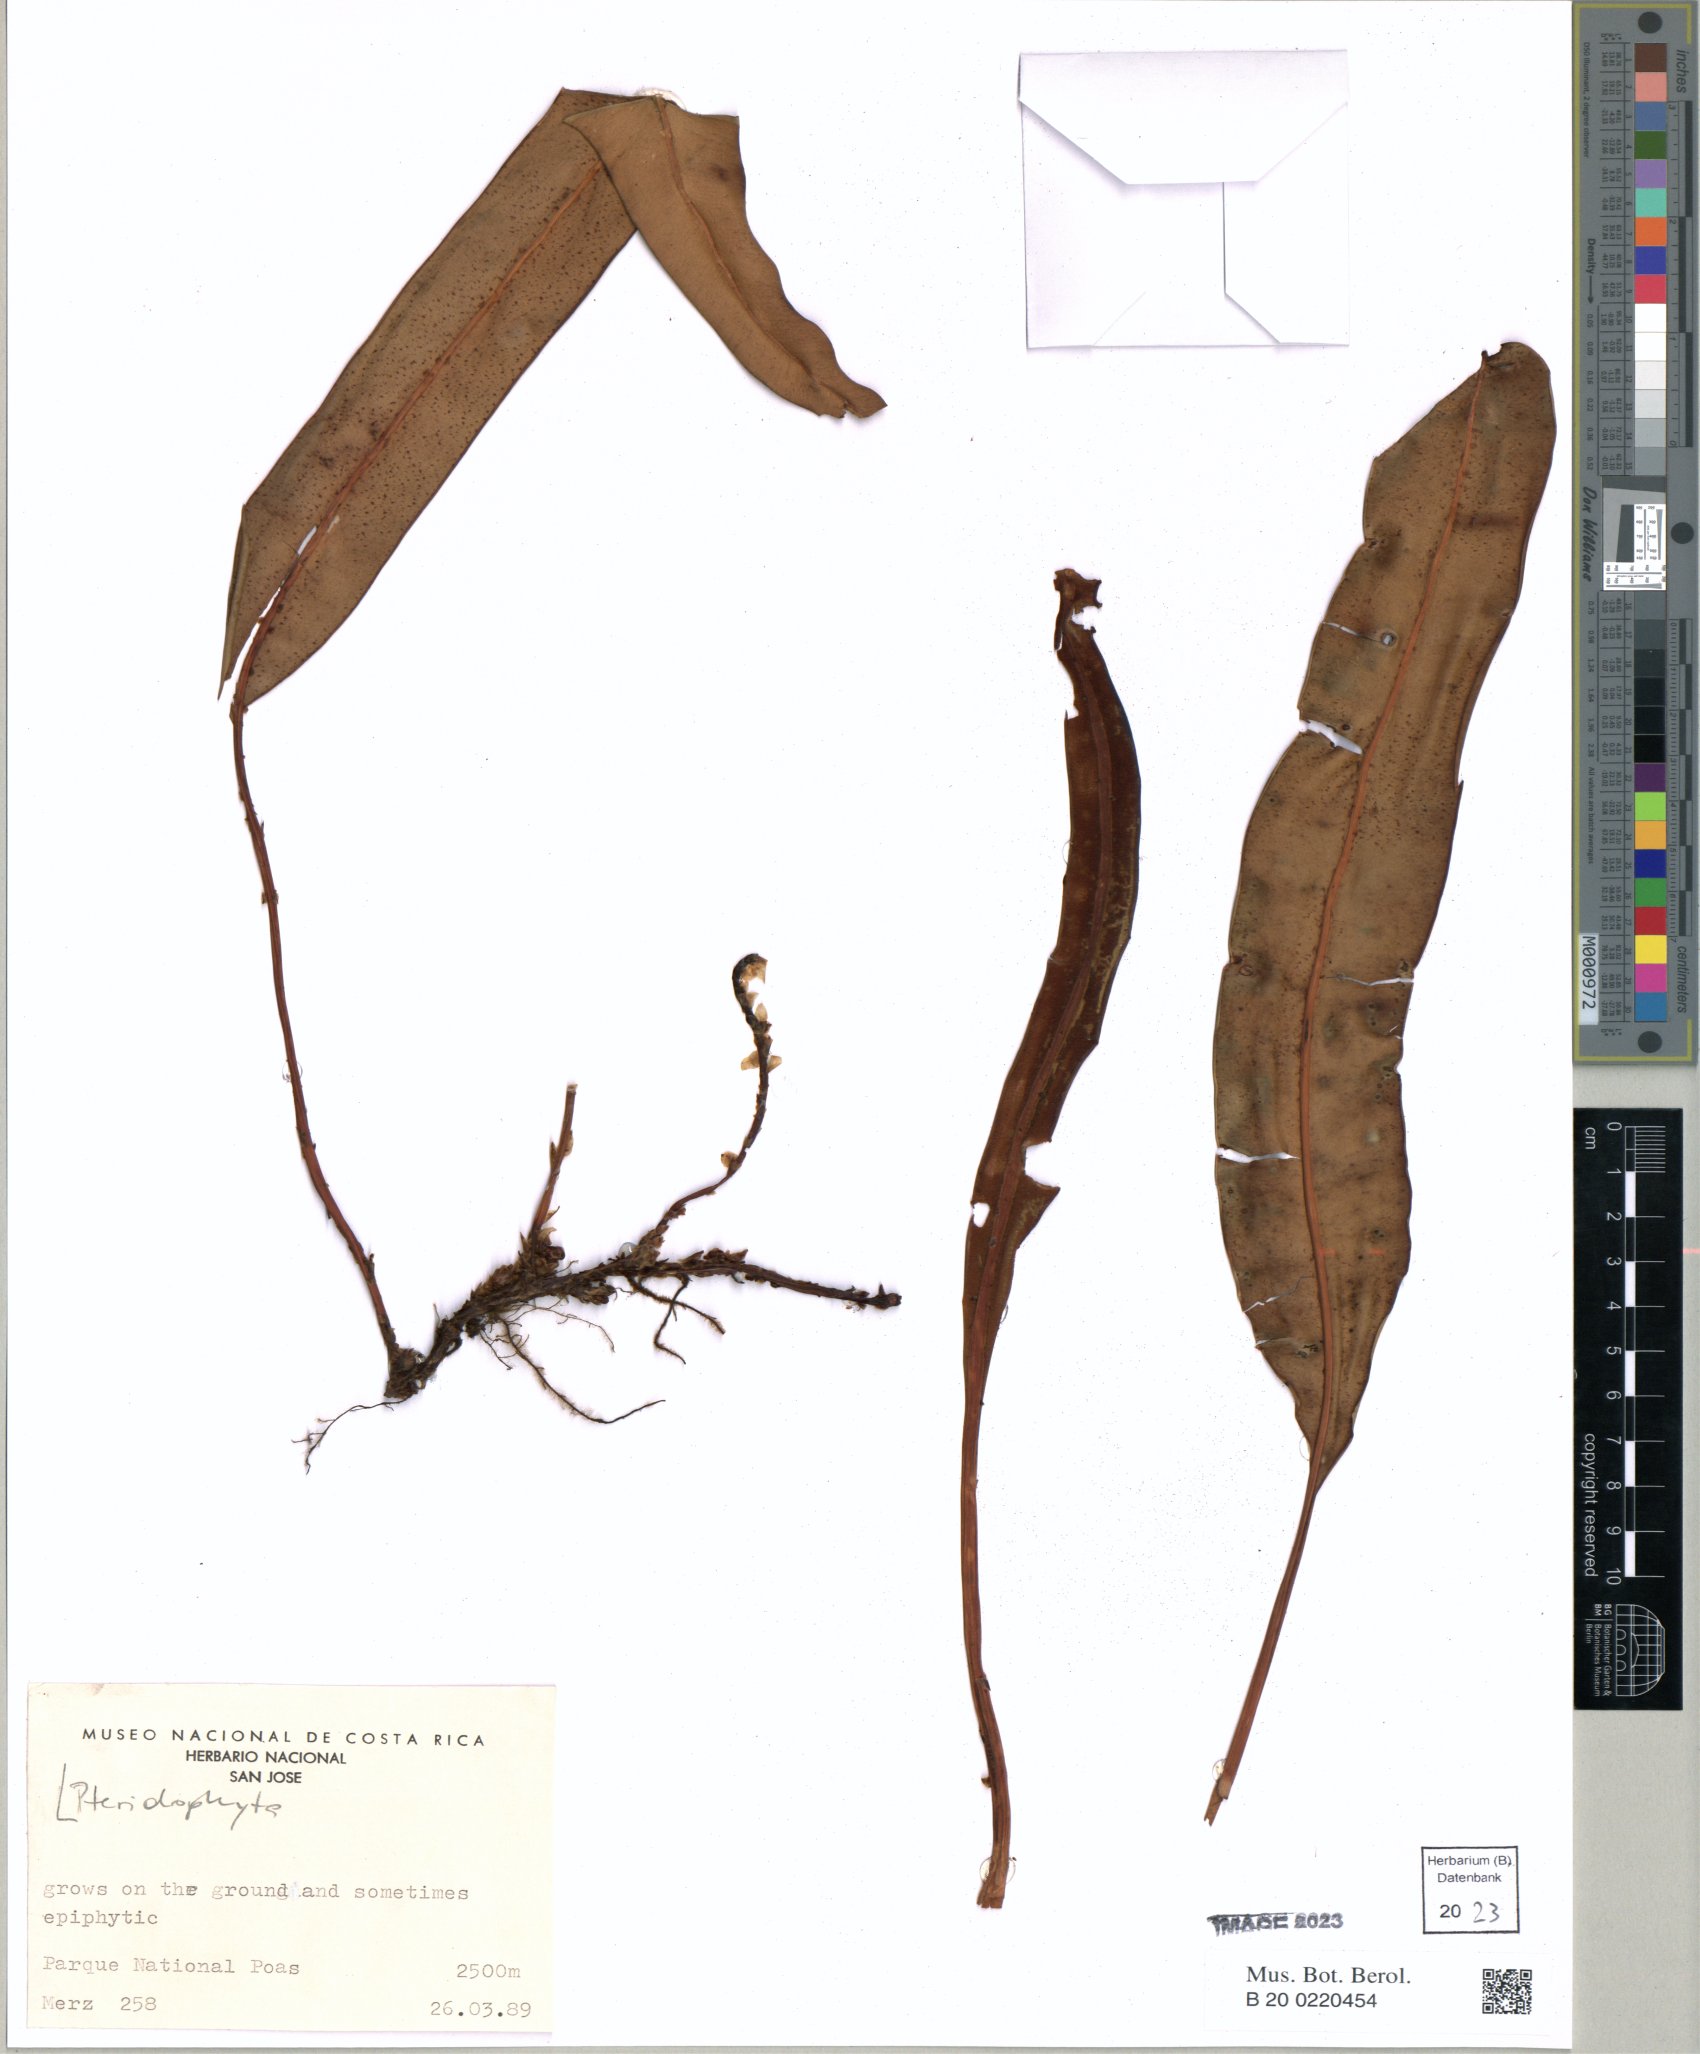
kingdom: Plantae
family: Pteridophyta
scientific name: Pteridophyta
